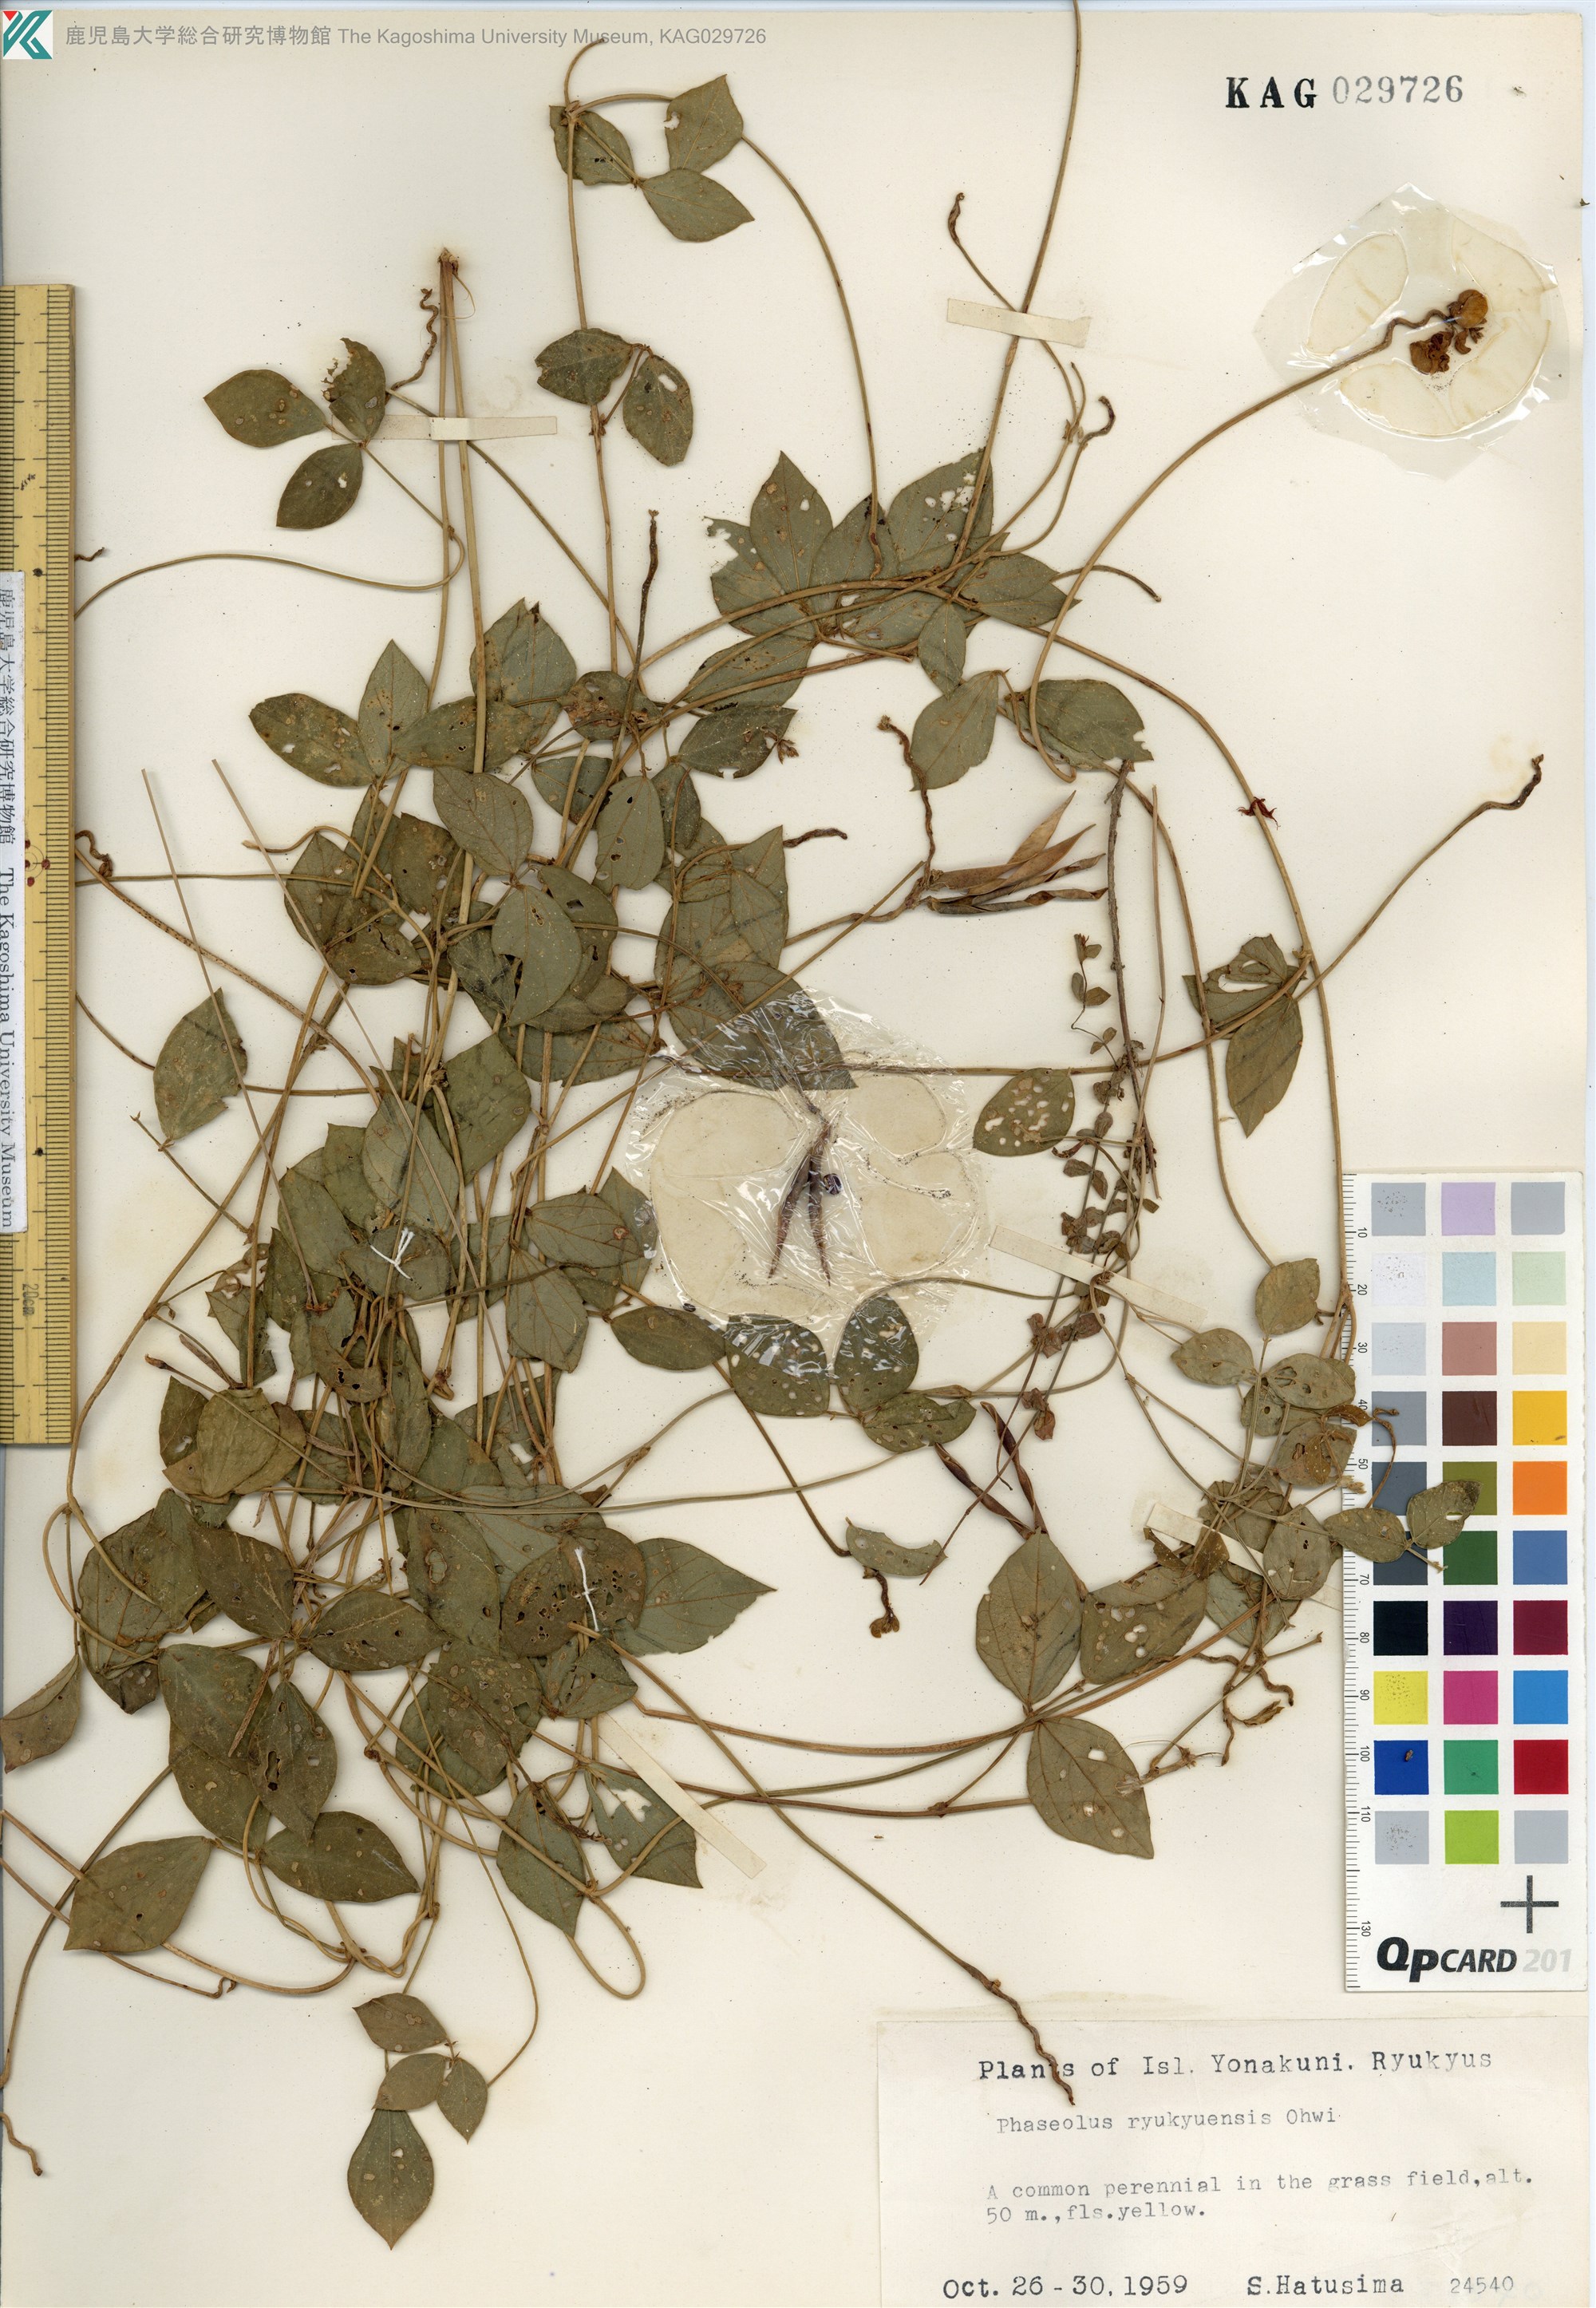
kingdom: Plantae
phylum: Tracheophyta
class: Magnoliopsida
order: Fabales
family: Fabaceae
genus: Vigna
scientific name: Vigna minima
